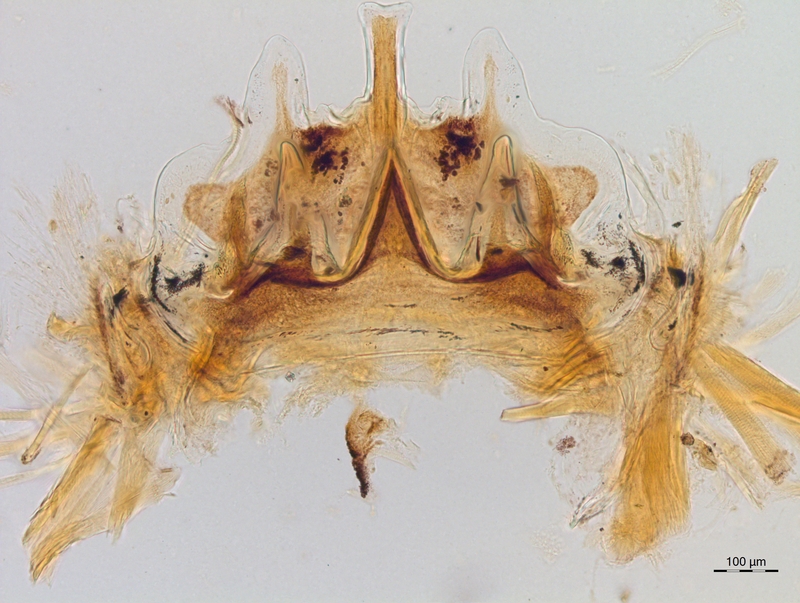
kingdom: Animalia
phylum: Arthropoda
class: Diplopoda
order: Chordeumatida
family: Craspedosomatidae
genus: Craspedosoma
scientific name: Craspedosoma rawlinsii
